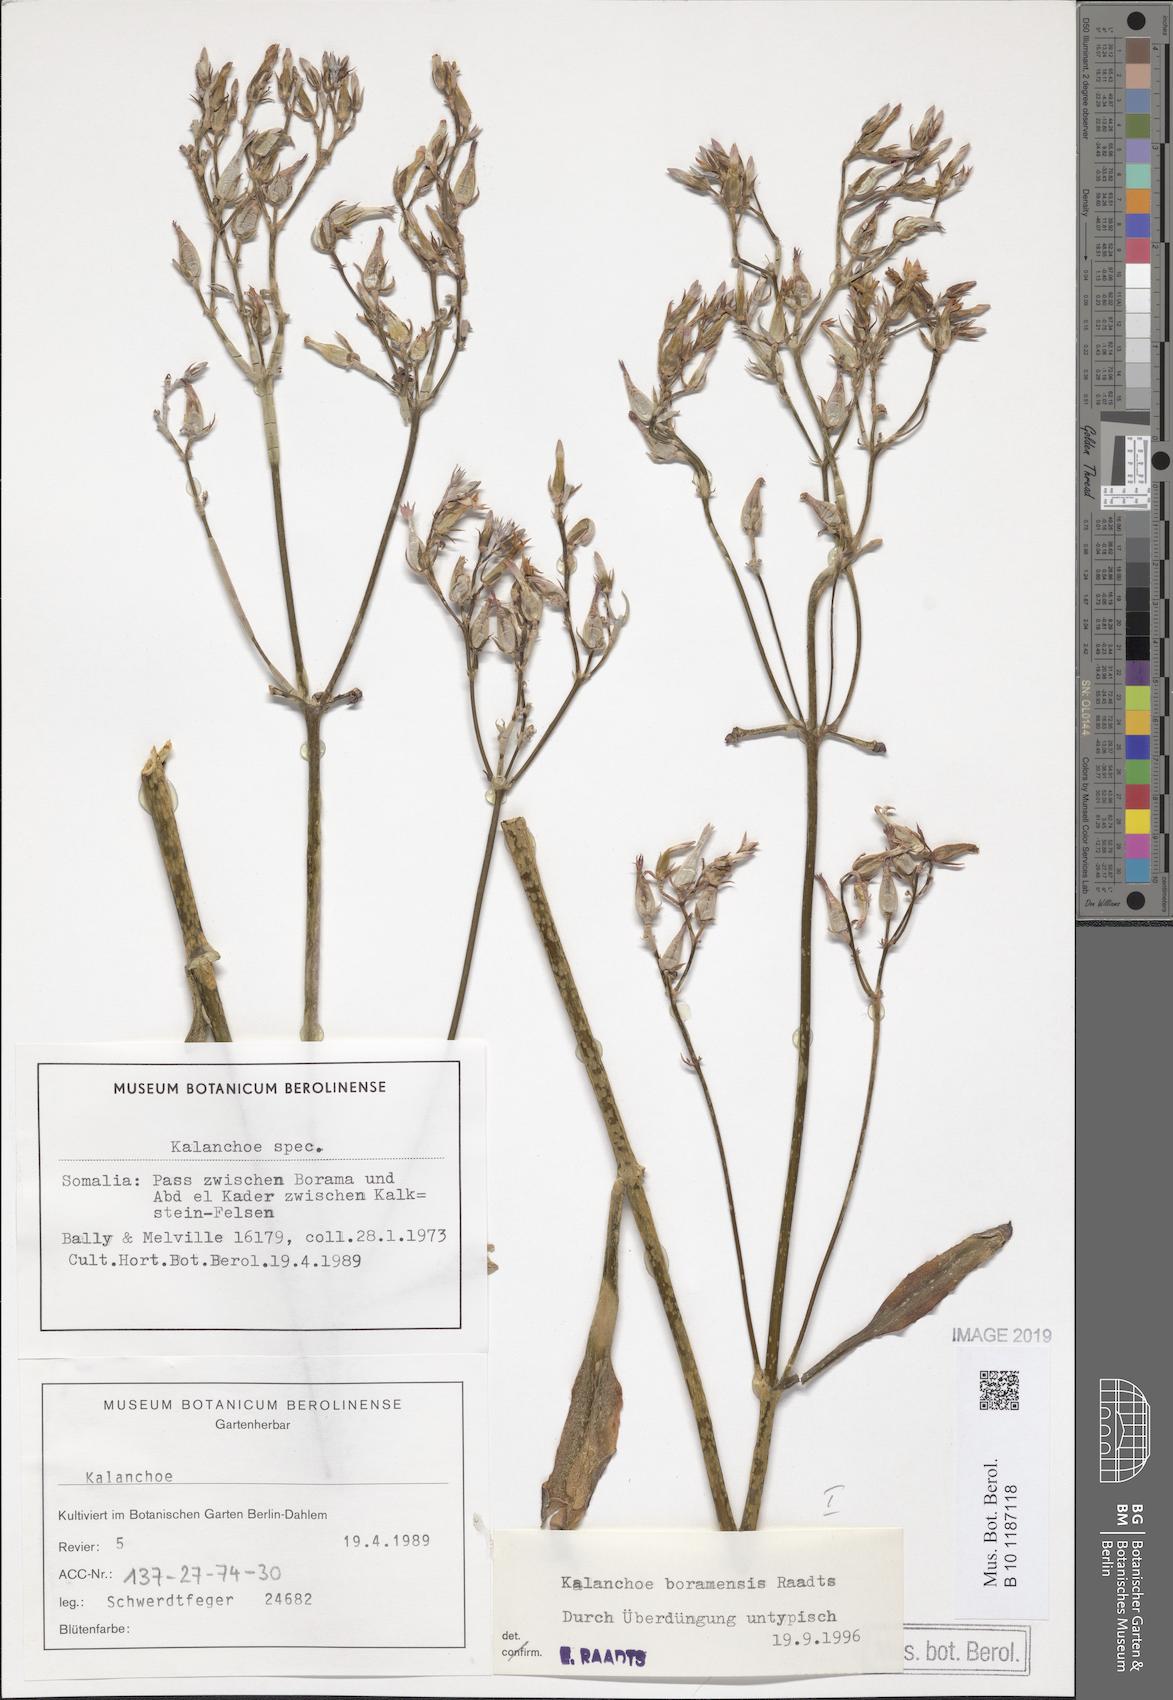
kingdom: Plantae
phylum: Tracheophyta
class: Magnoliopsida
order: Saxifragales
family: Crassulaceae
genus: Kalanchoe
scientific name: Kalanchoe
